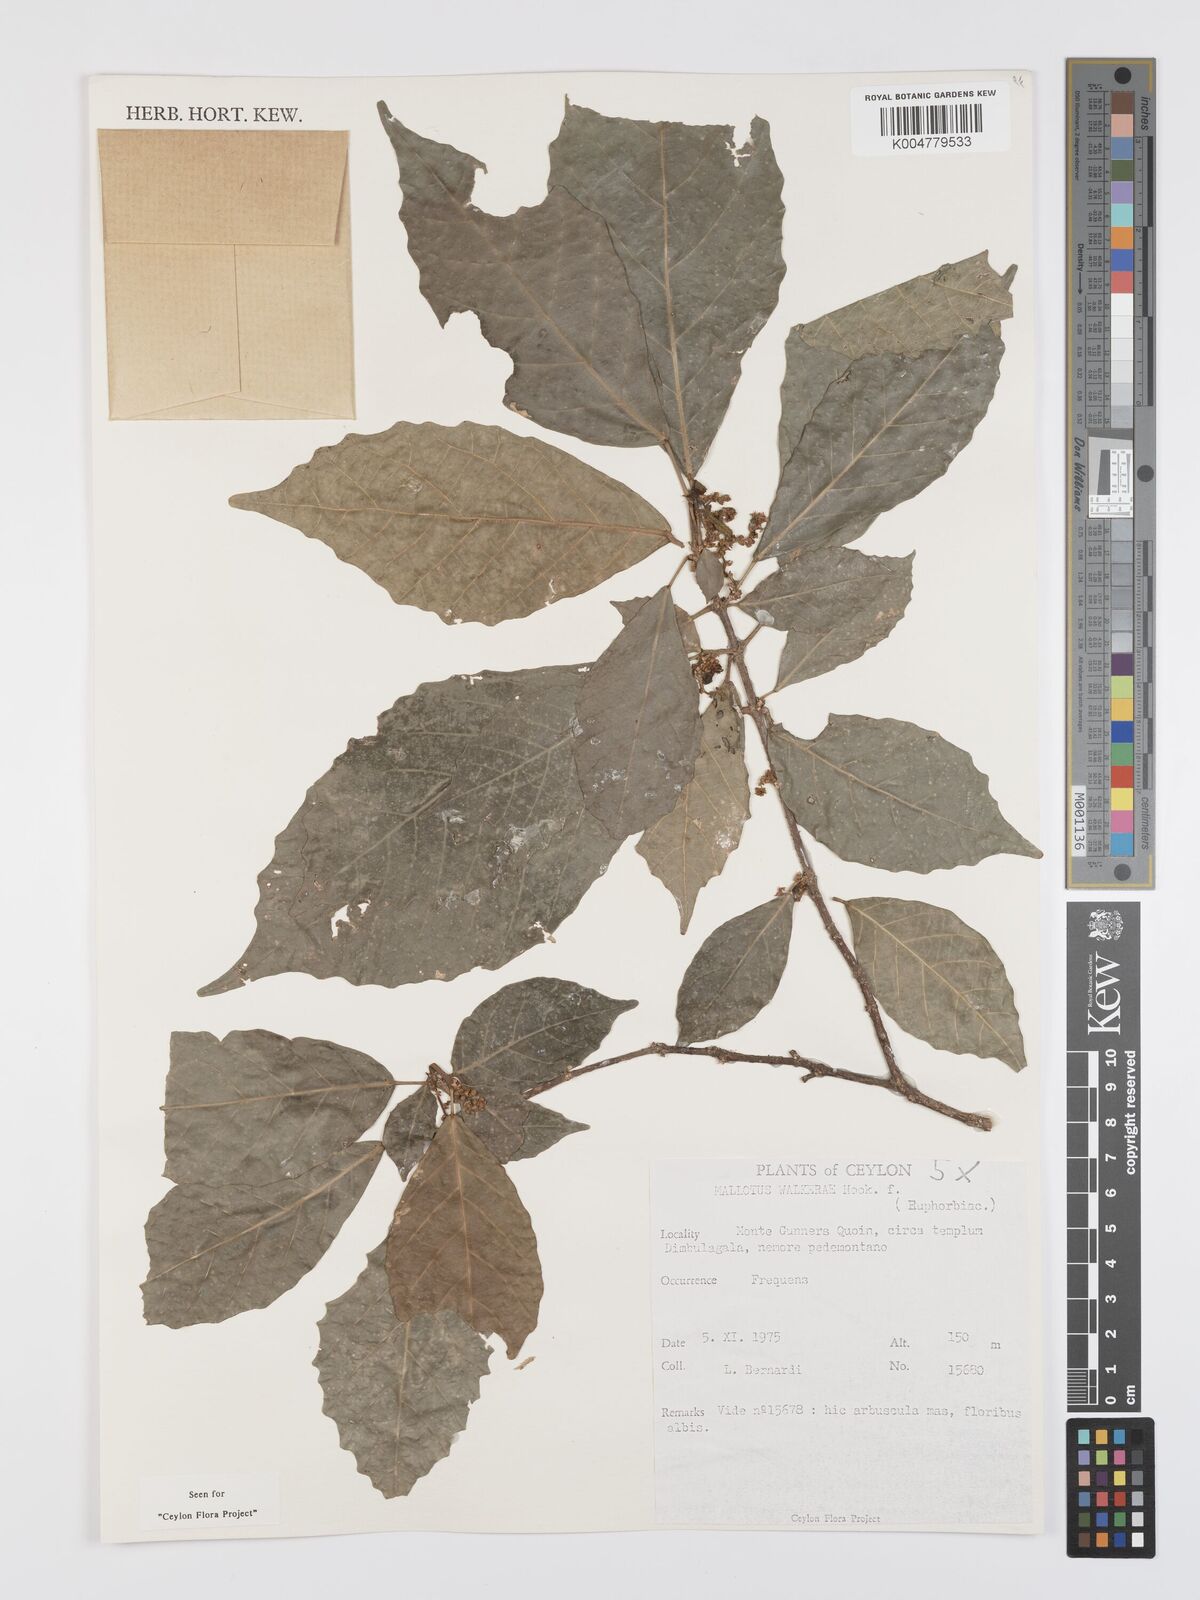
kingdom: Plantae
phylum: Tracheophyta
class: Magnoliopsida
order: Malpighiales
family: Euphorbiaceae
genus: Mallotus
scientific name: Mallotus resinosus
